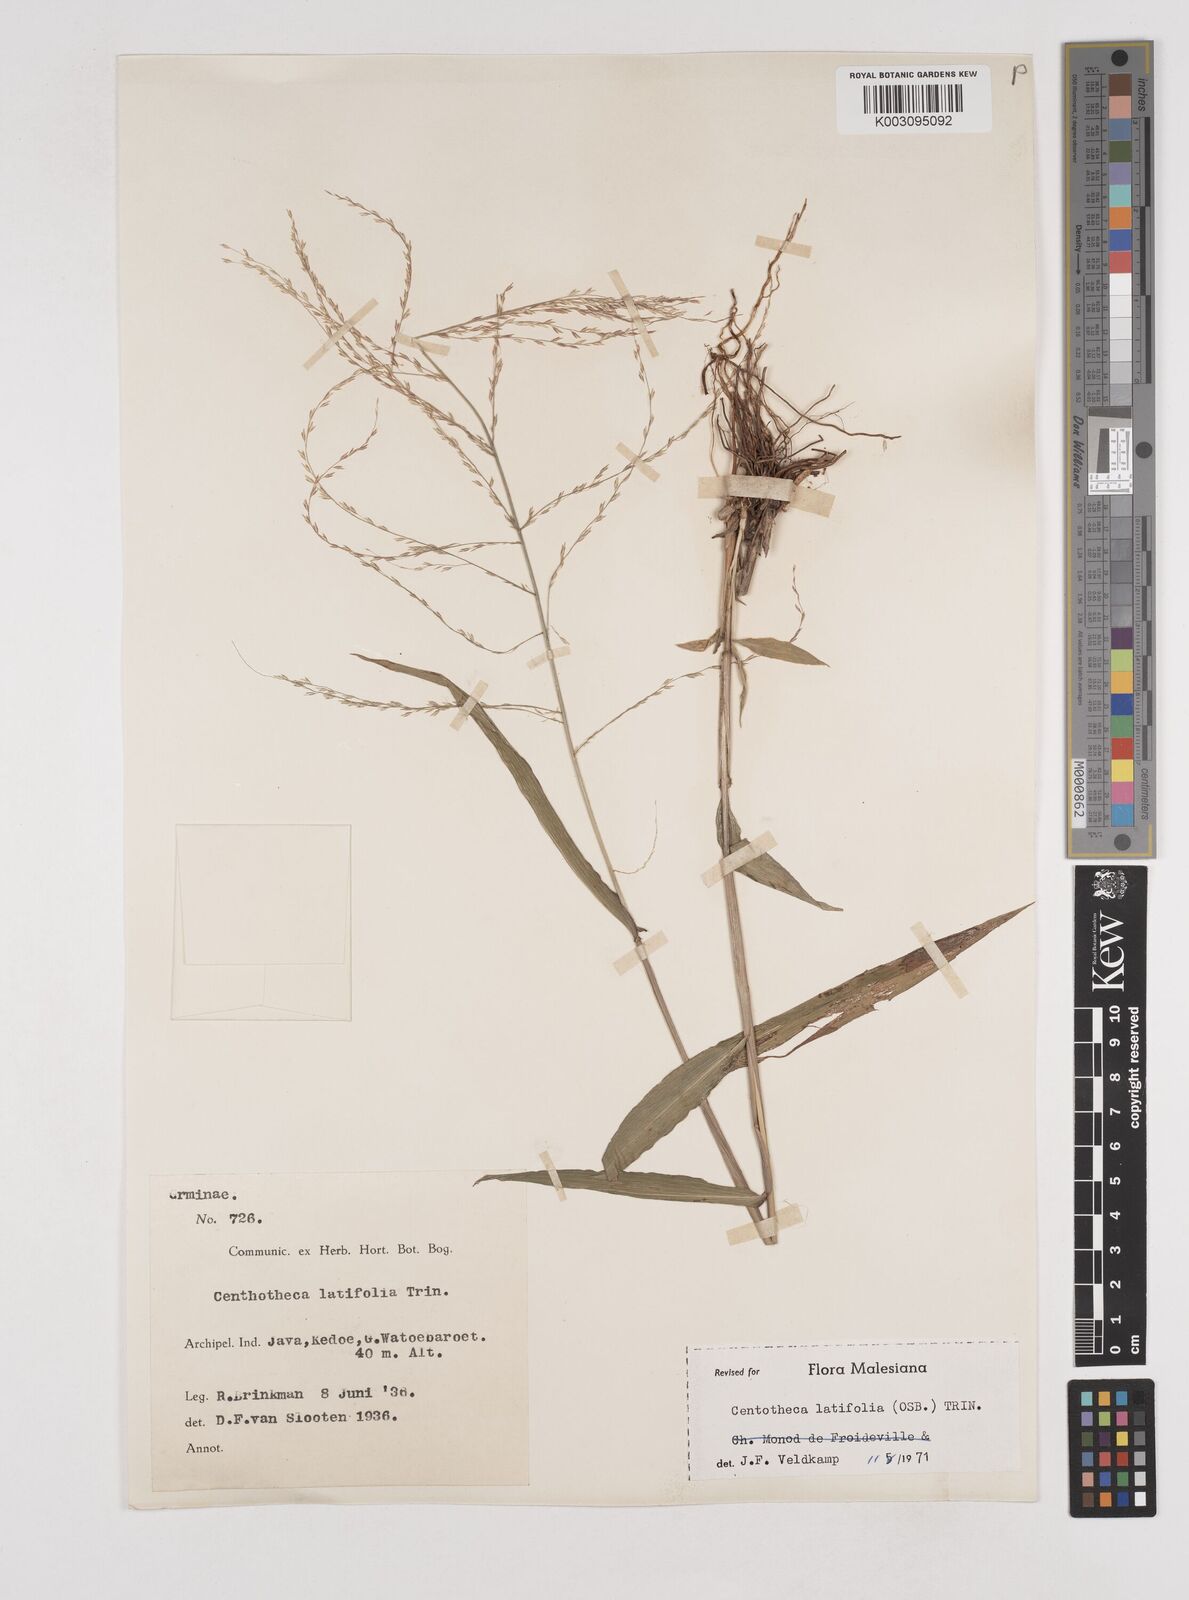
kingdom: Plantae
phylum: Tracheophyta
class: Liliopsida
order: Poales
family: Poaceae
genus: Centotheca
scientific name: Centotheca lappacea
